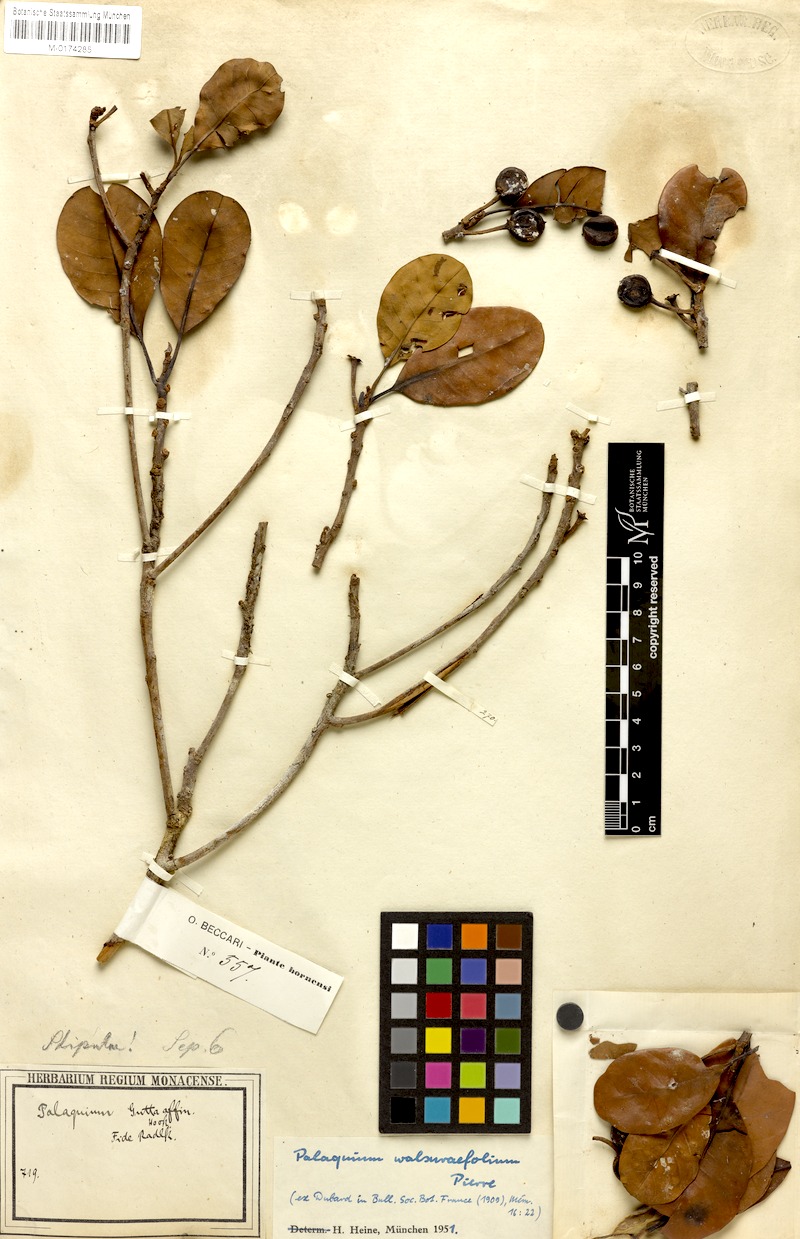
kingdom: Plantae
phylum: Tracheophyta
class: Magnoliopsida
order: Ericales
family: Sapotaceae
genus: Palaquium
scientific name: Palaquium walsurifolium
